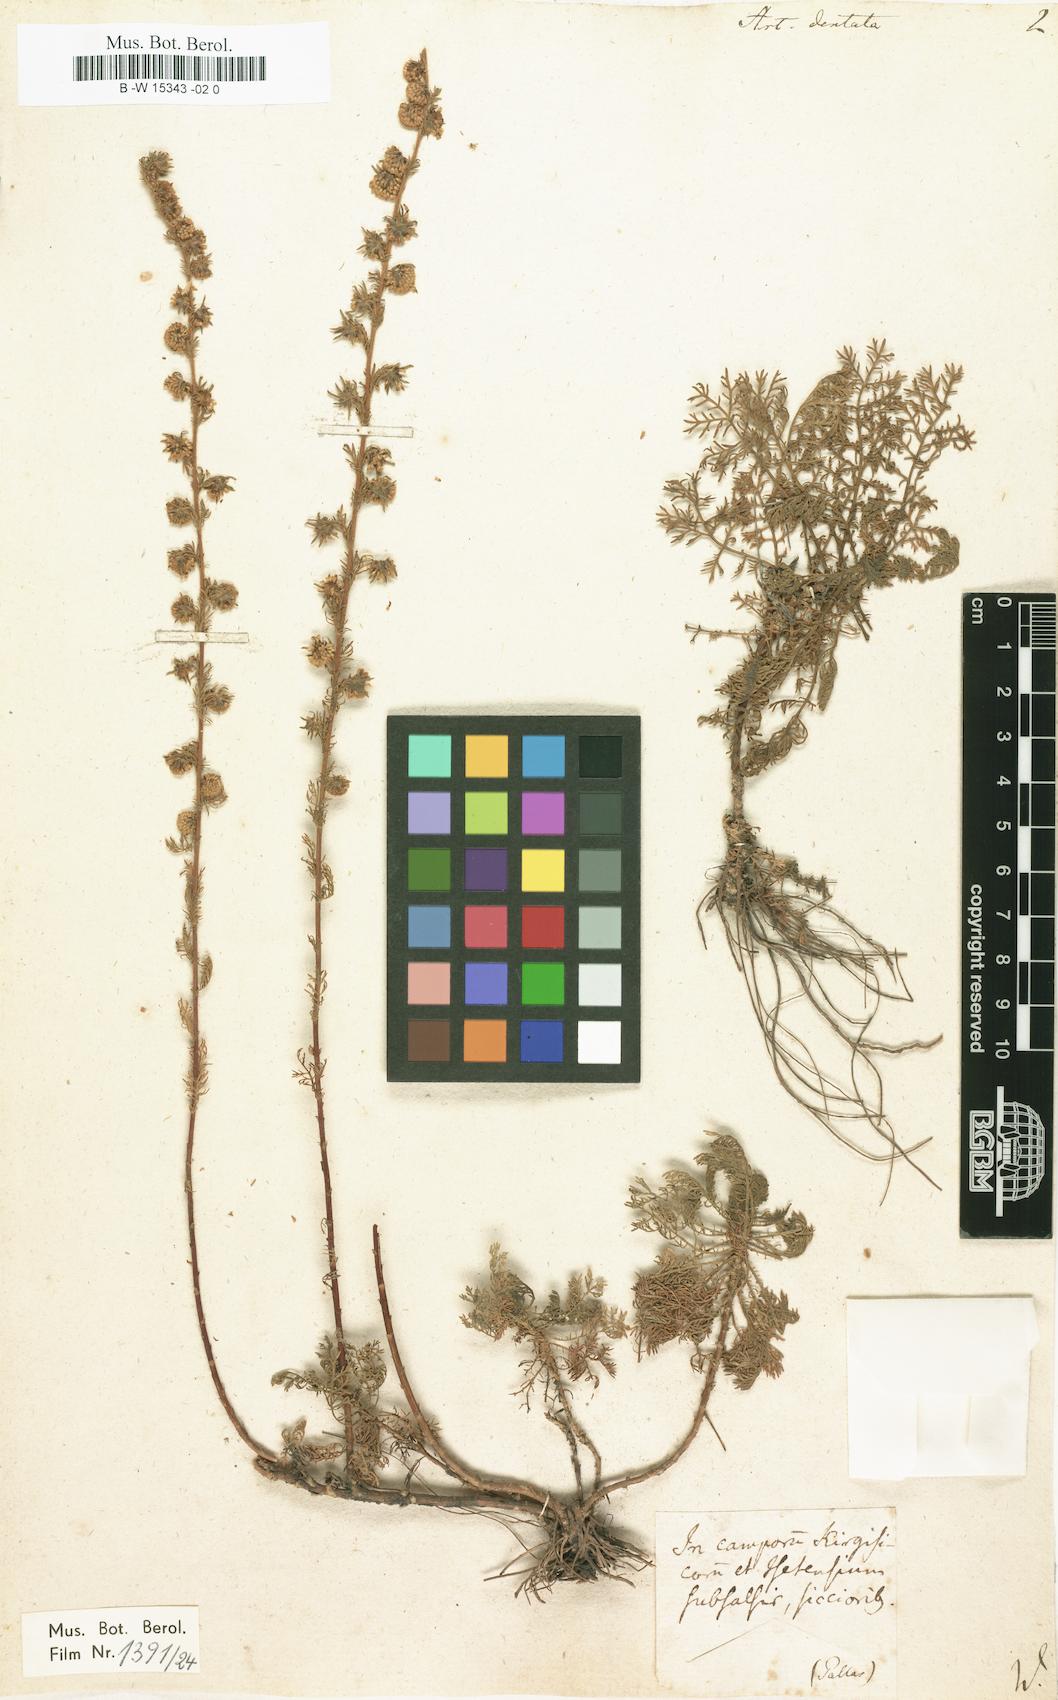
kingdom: Plantae
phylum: Tracheophyta
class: Magnoliopsida
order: Asterales
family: Asteraceae
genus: Artemisia
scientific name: Artemisia rupestris
